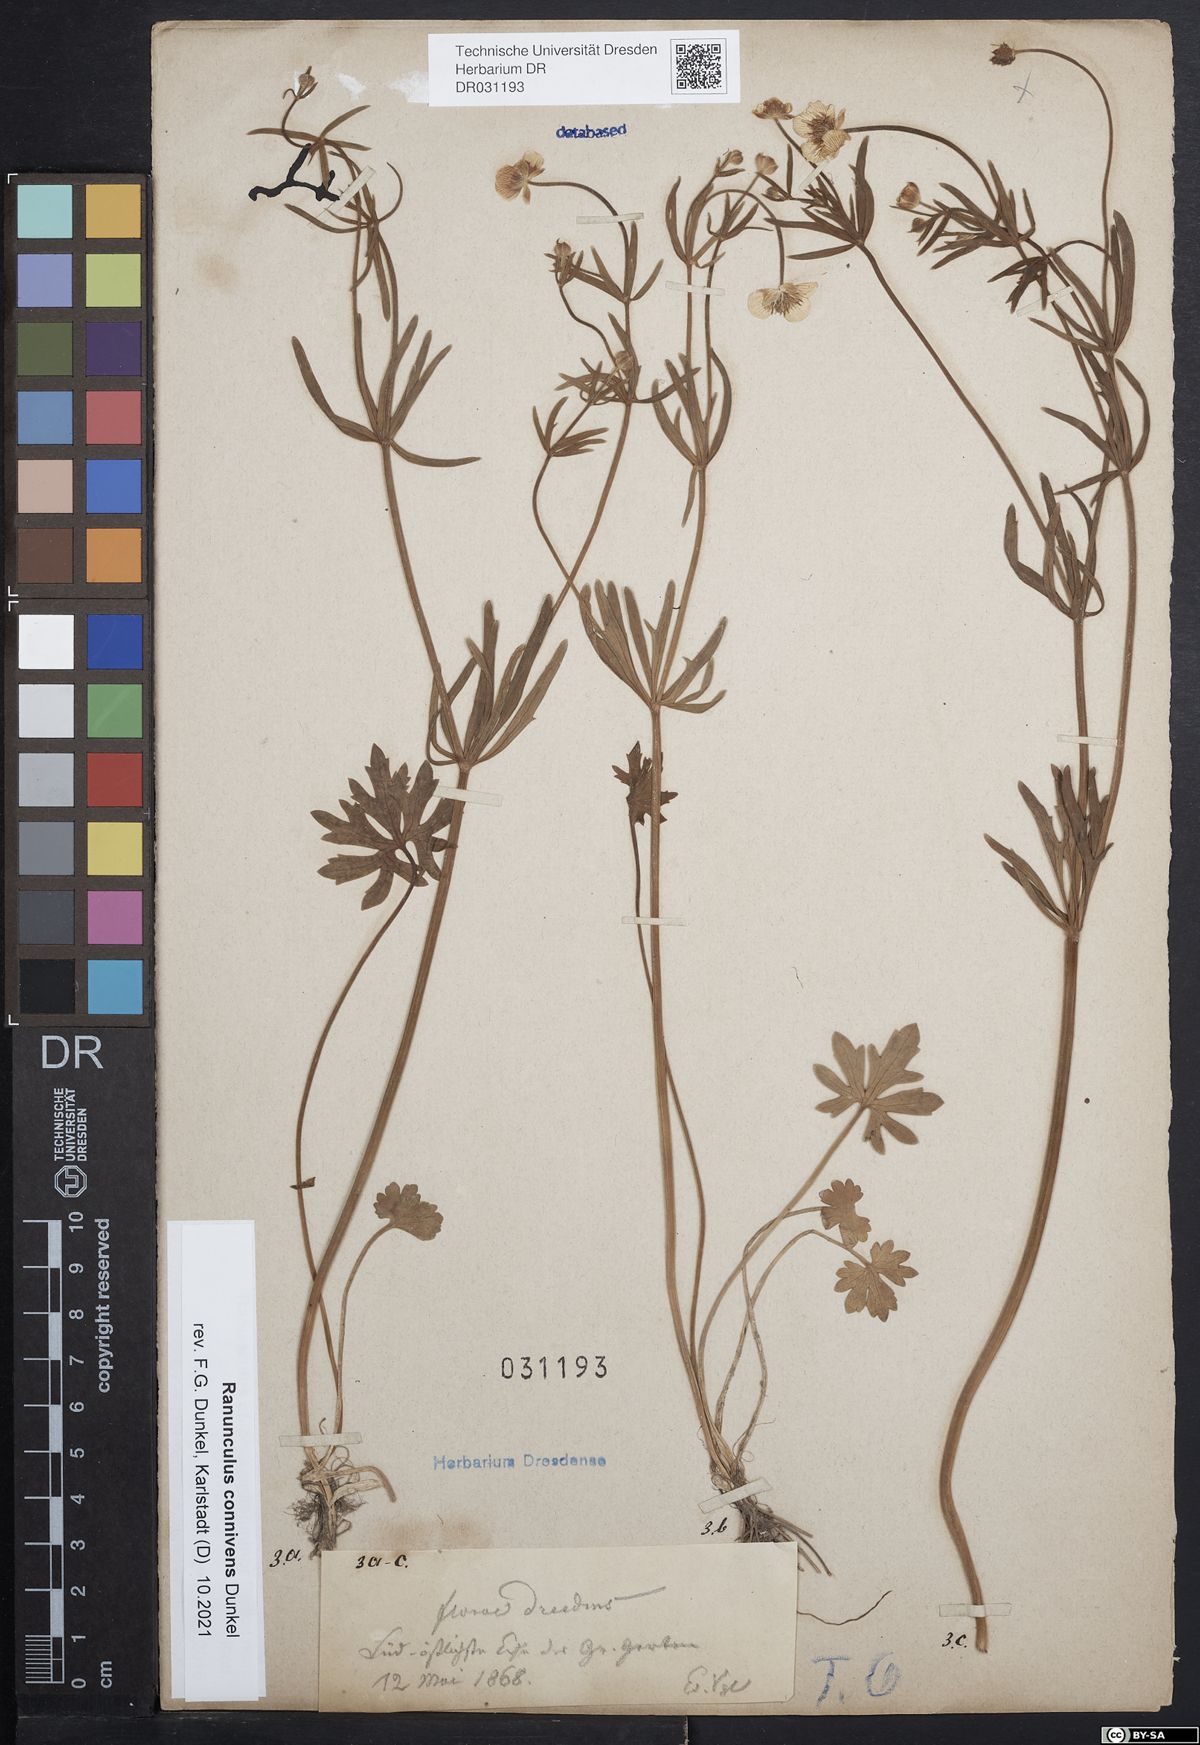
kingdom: Plantae
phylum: Tracheophyta
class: Magnoliopsida
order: Ranunculales
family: Ranunculaceae
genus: Ranunculus
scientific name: Ranunculus connivens
